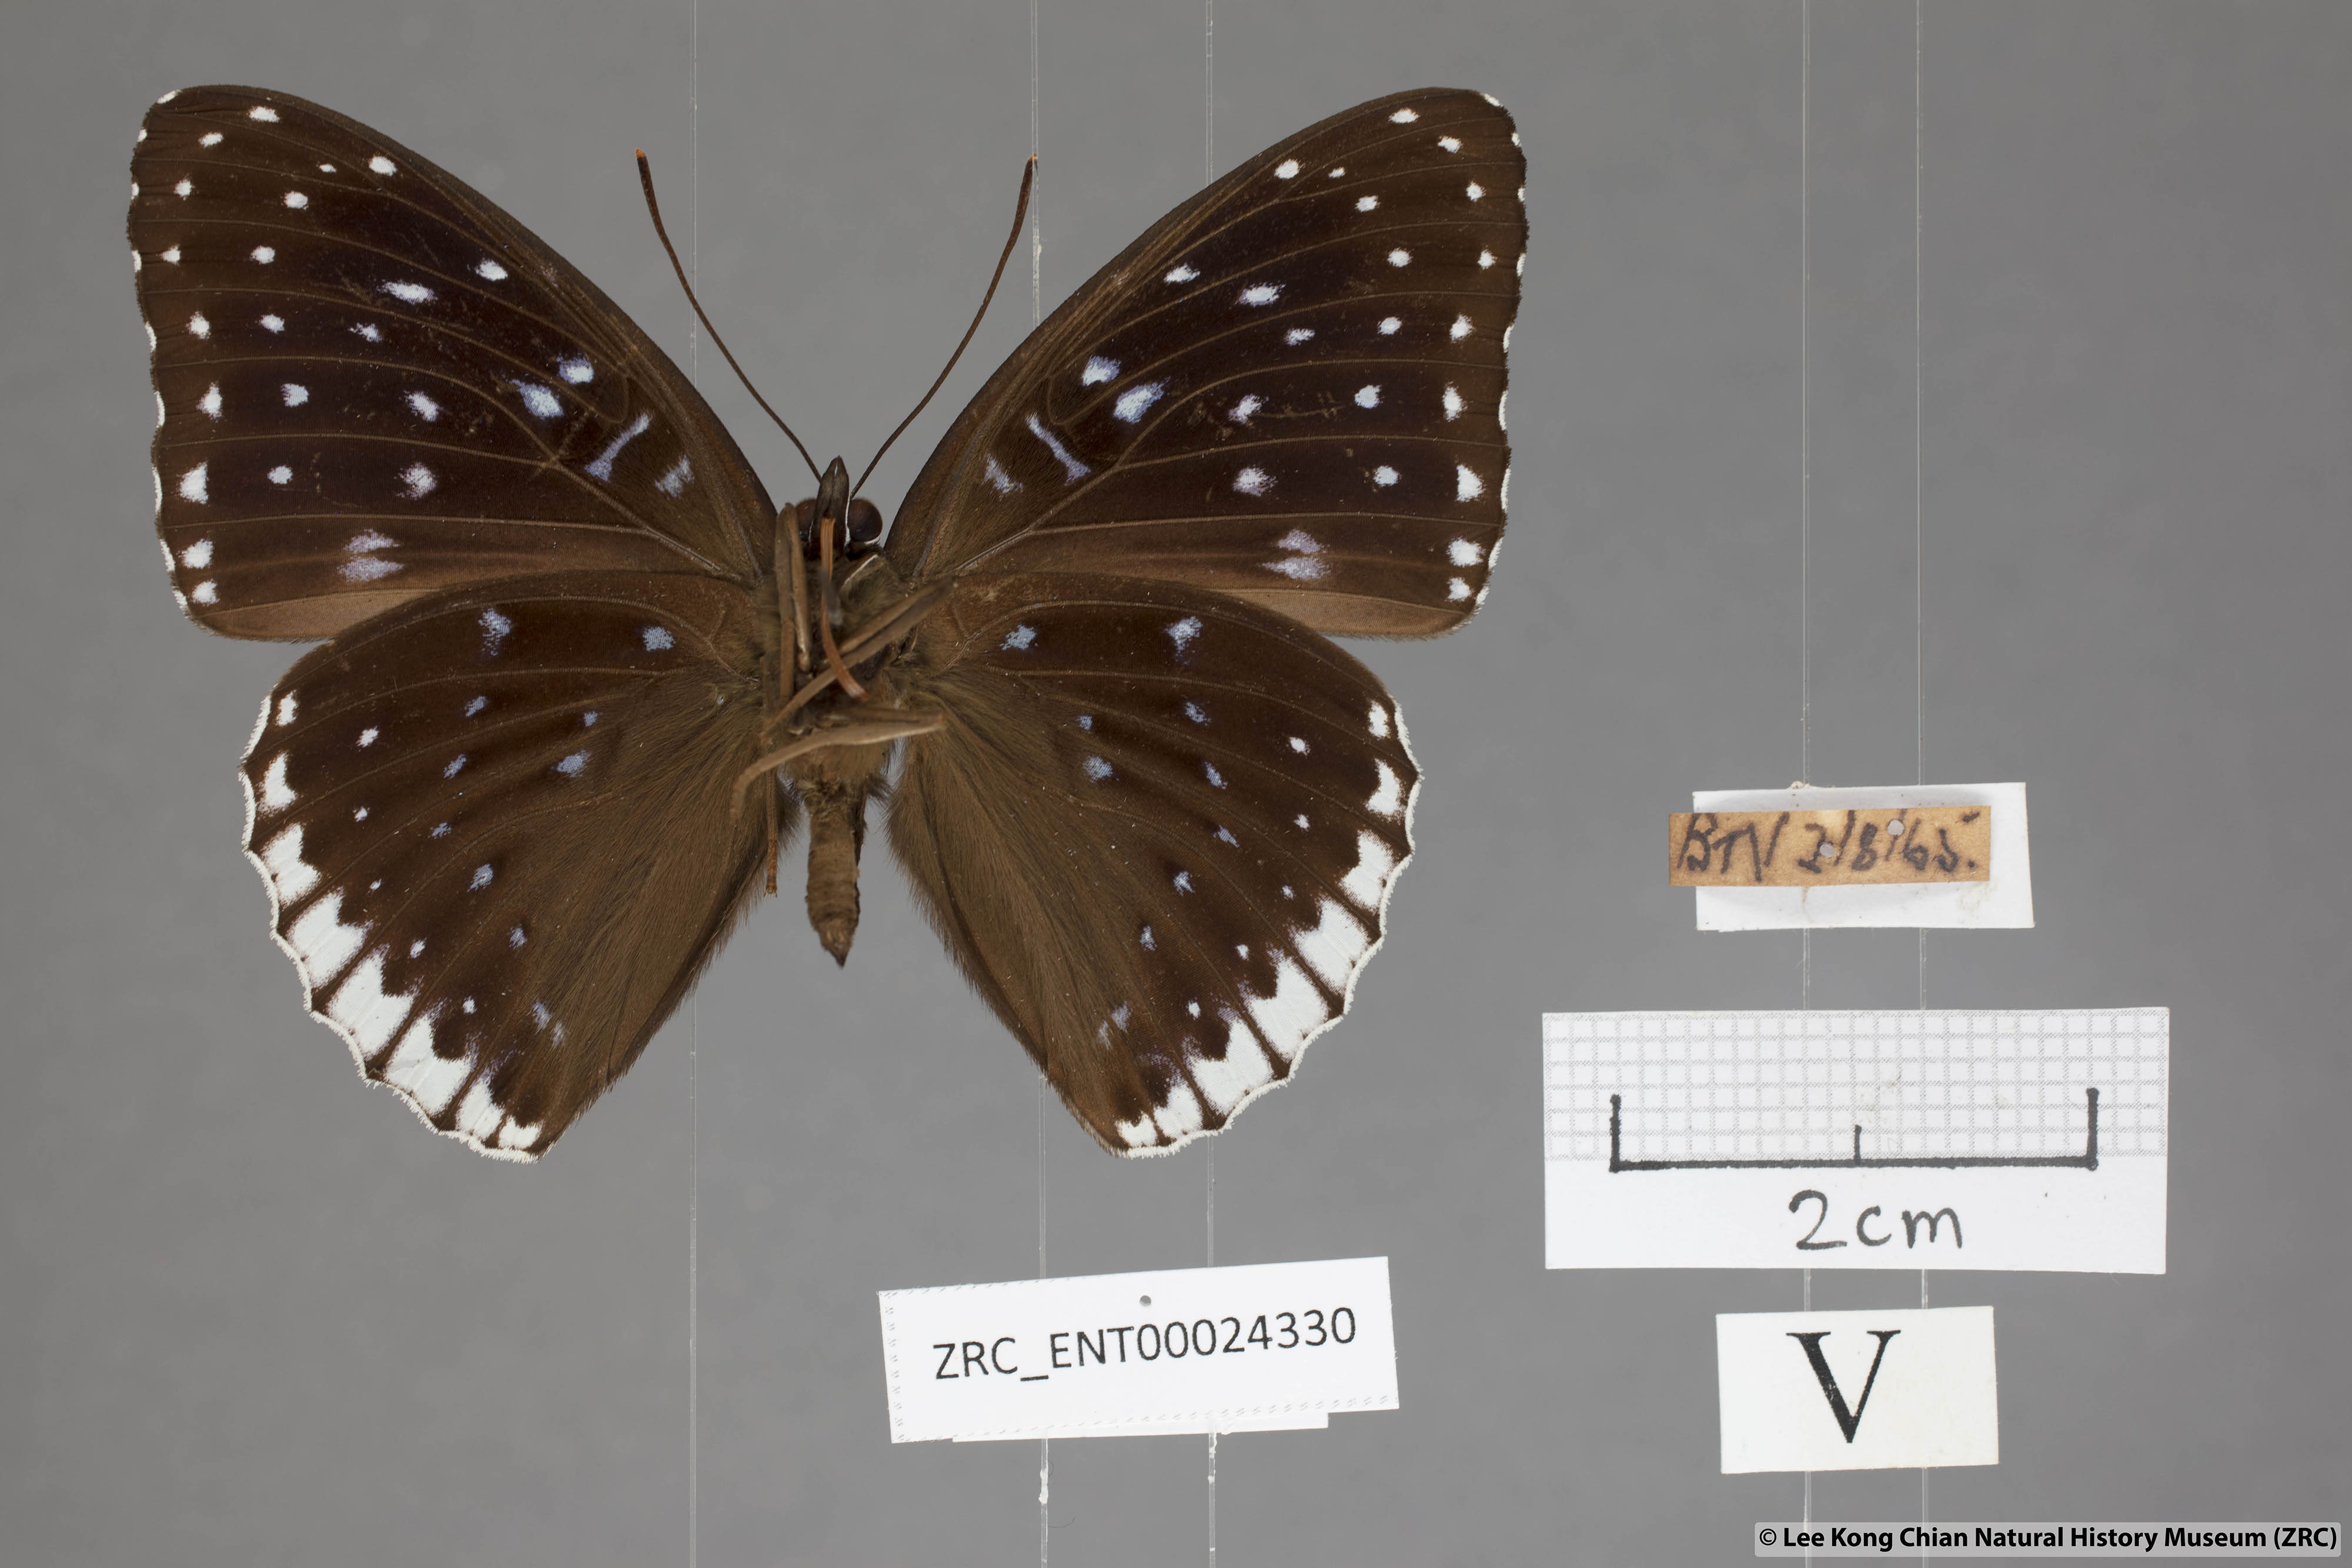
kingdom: Animalia
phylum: Arthropoda
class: Insecta
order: Lepidoptera
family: Nymphalidae
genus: Stibochiona
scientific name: Stibochiona nicea
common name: Popinjay
